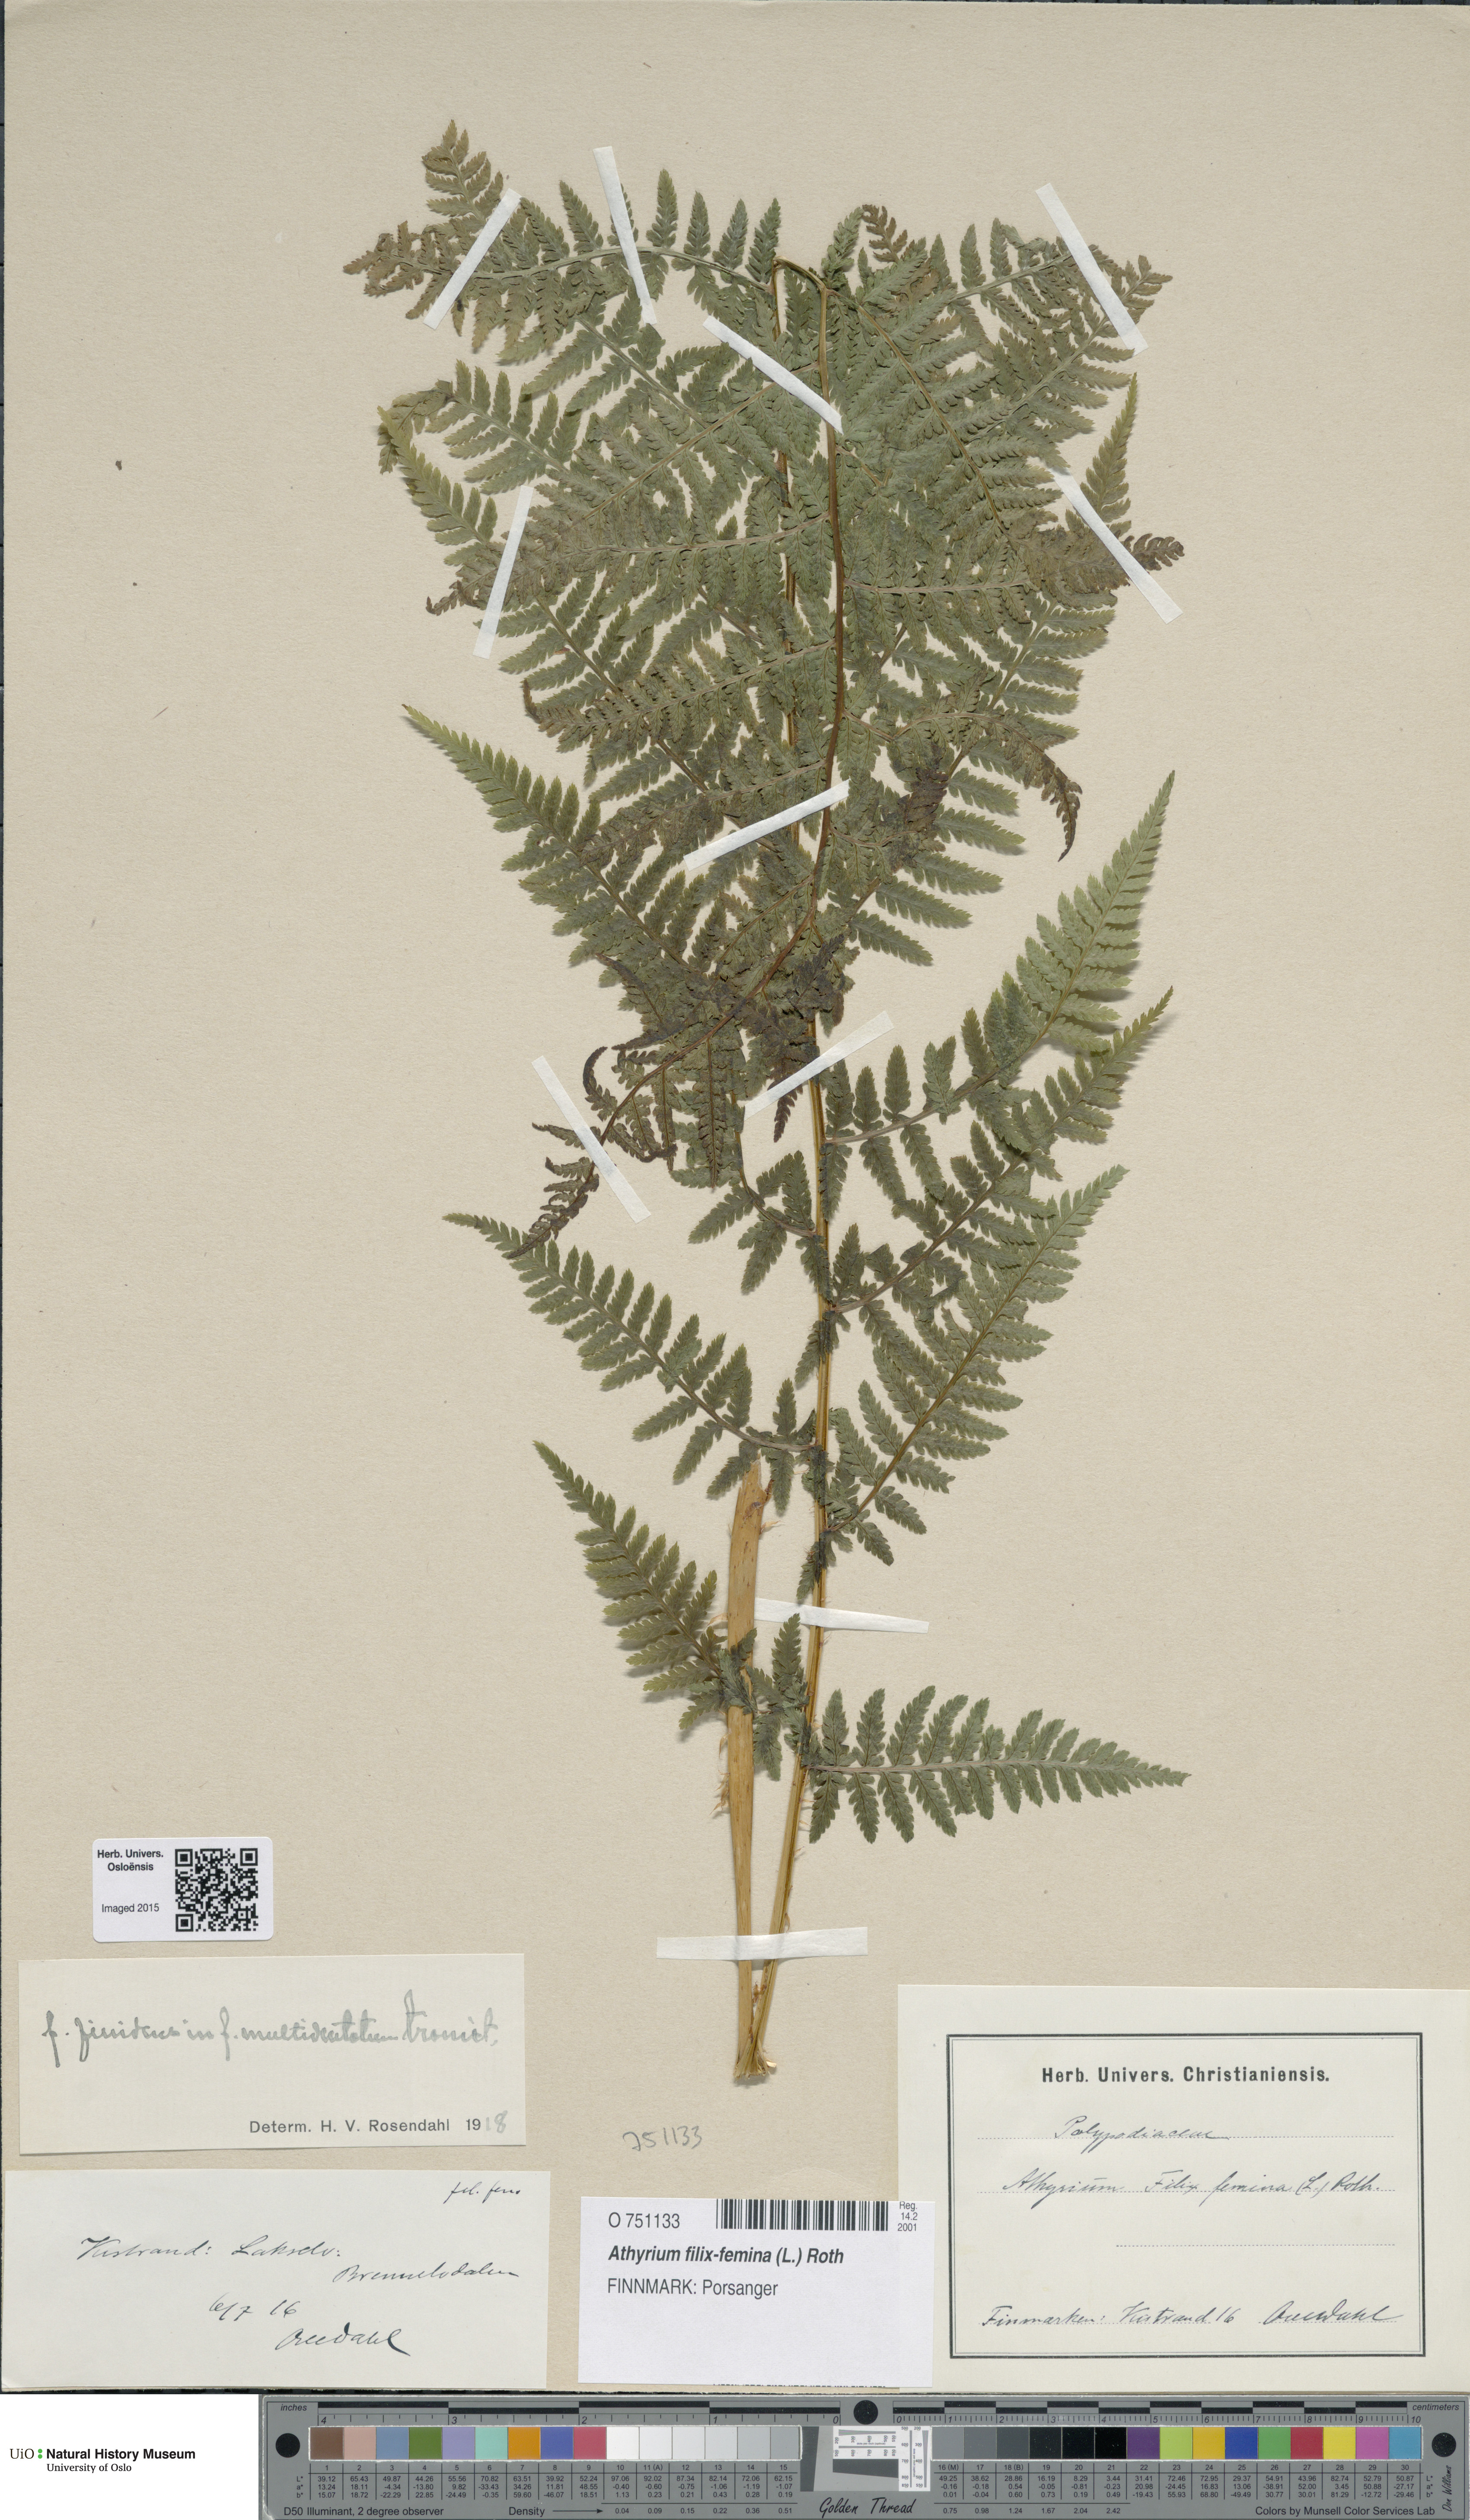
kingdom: Plantae
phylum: Tracheophyta
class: Polypodiopsida
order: Polypodiales
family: Athyriaceae
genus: Athyrium
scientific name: Athyrium filix-femina
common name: Lady fern
